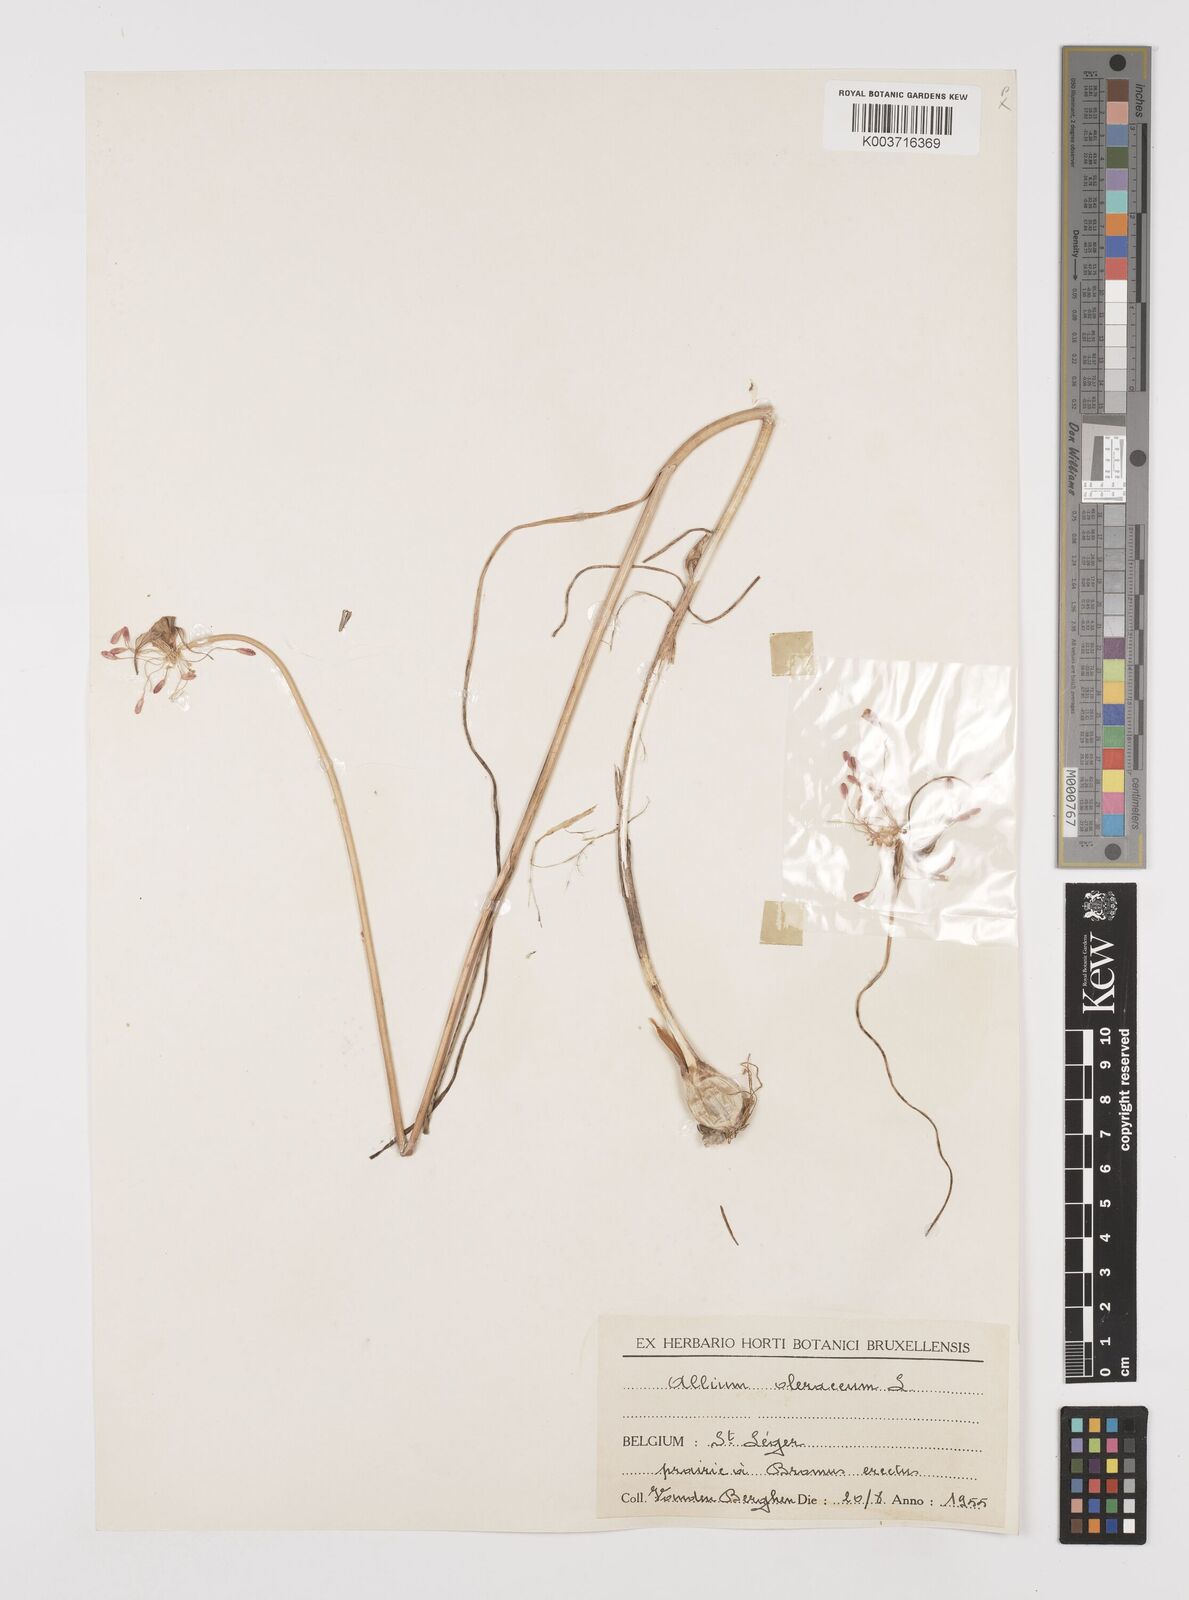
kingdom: Plantae
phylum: Tracheophyta
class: Liliopsida
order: Asparagales
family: Amaryllidaceae
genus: Allium
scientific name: Allium oleraceum
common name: Field garlic
